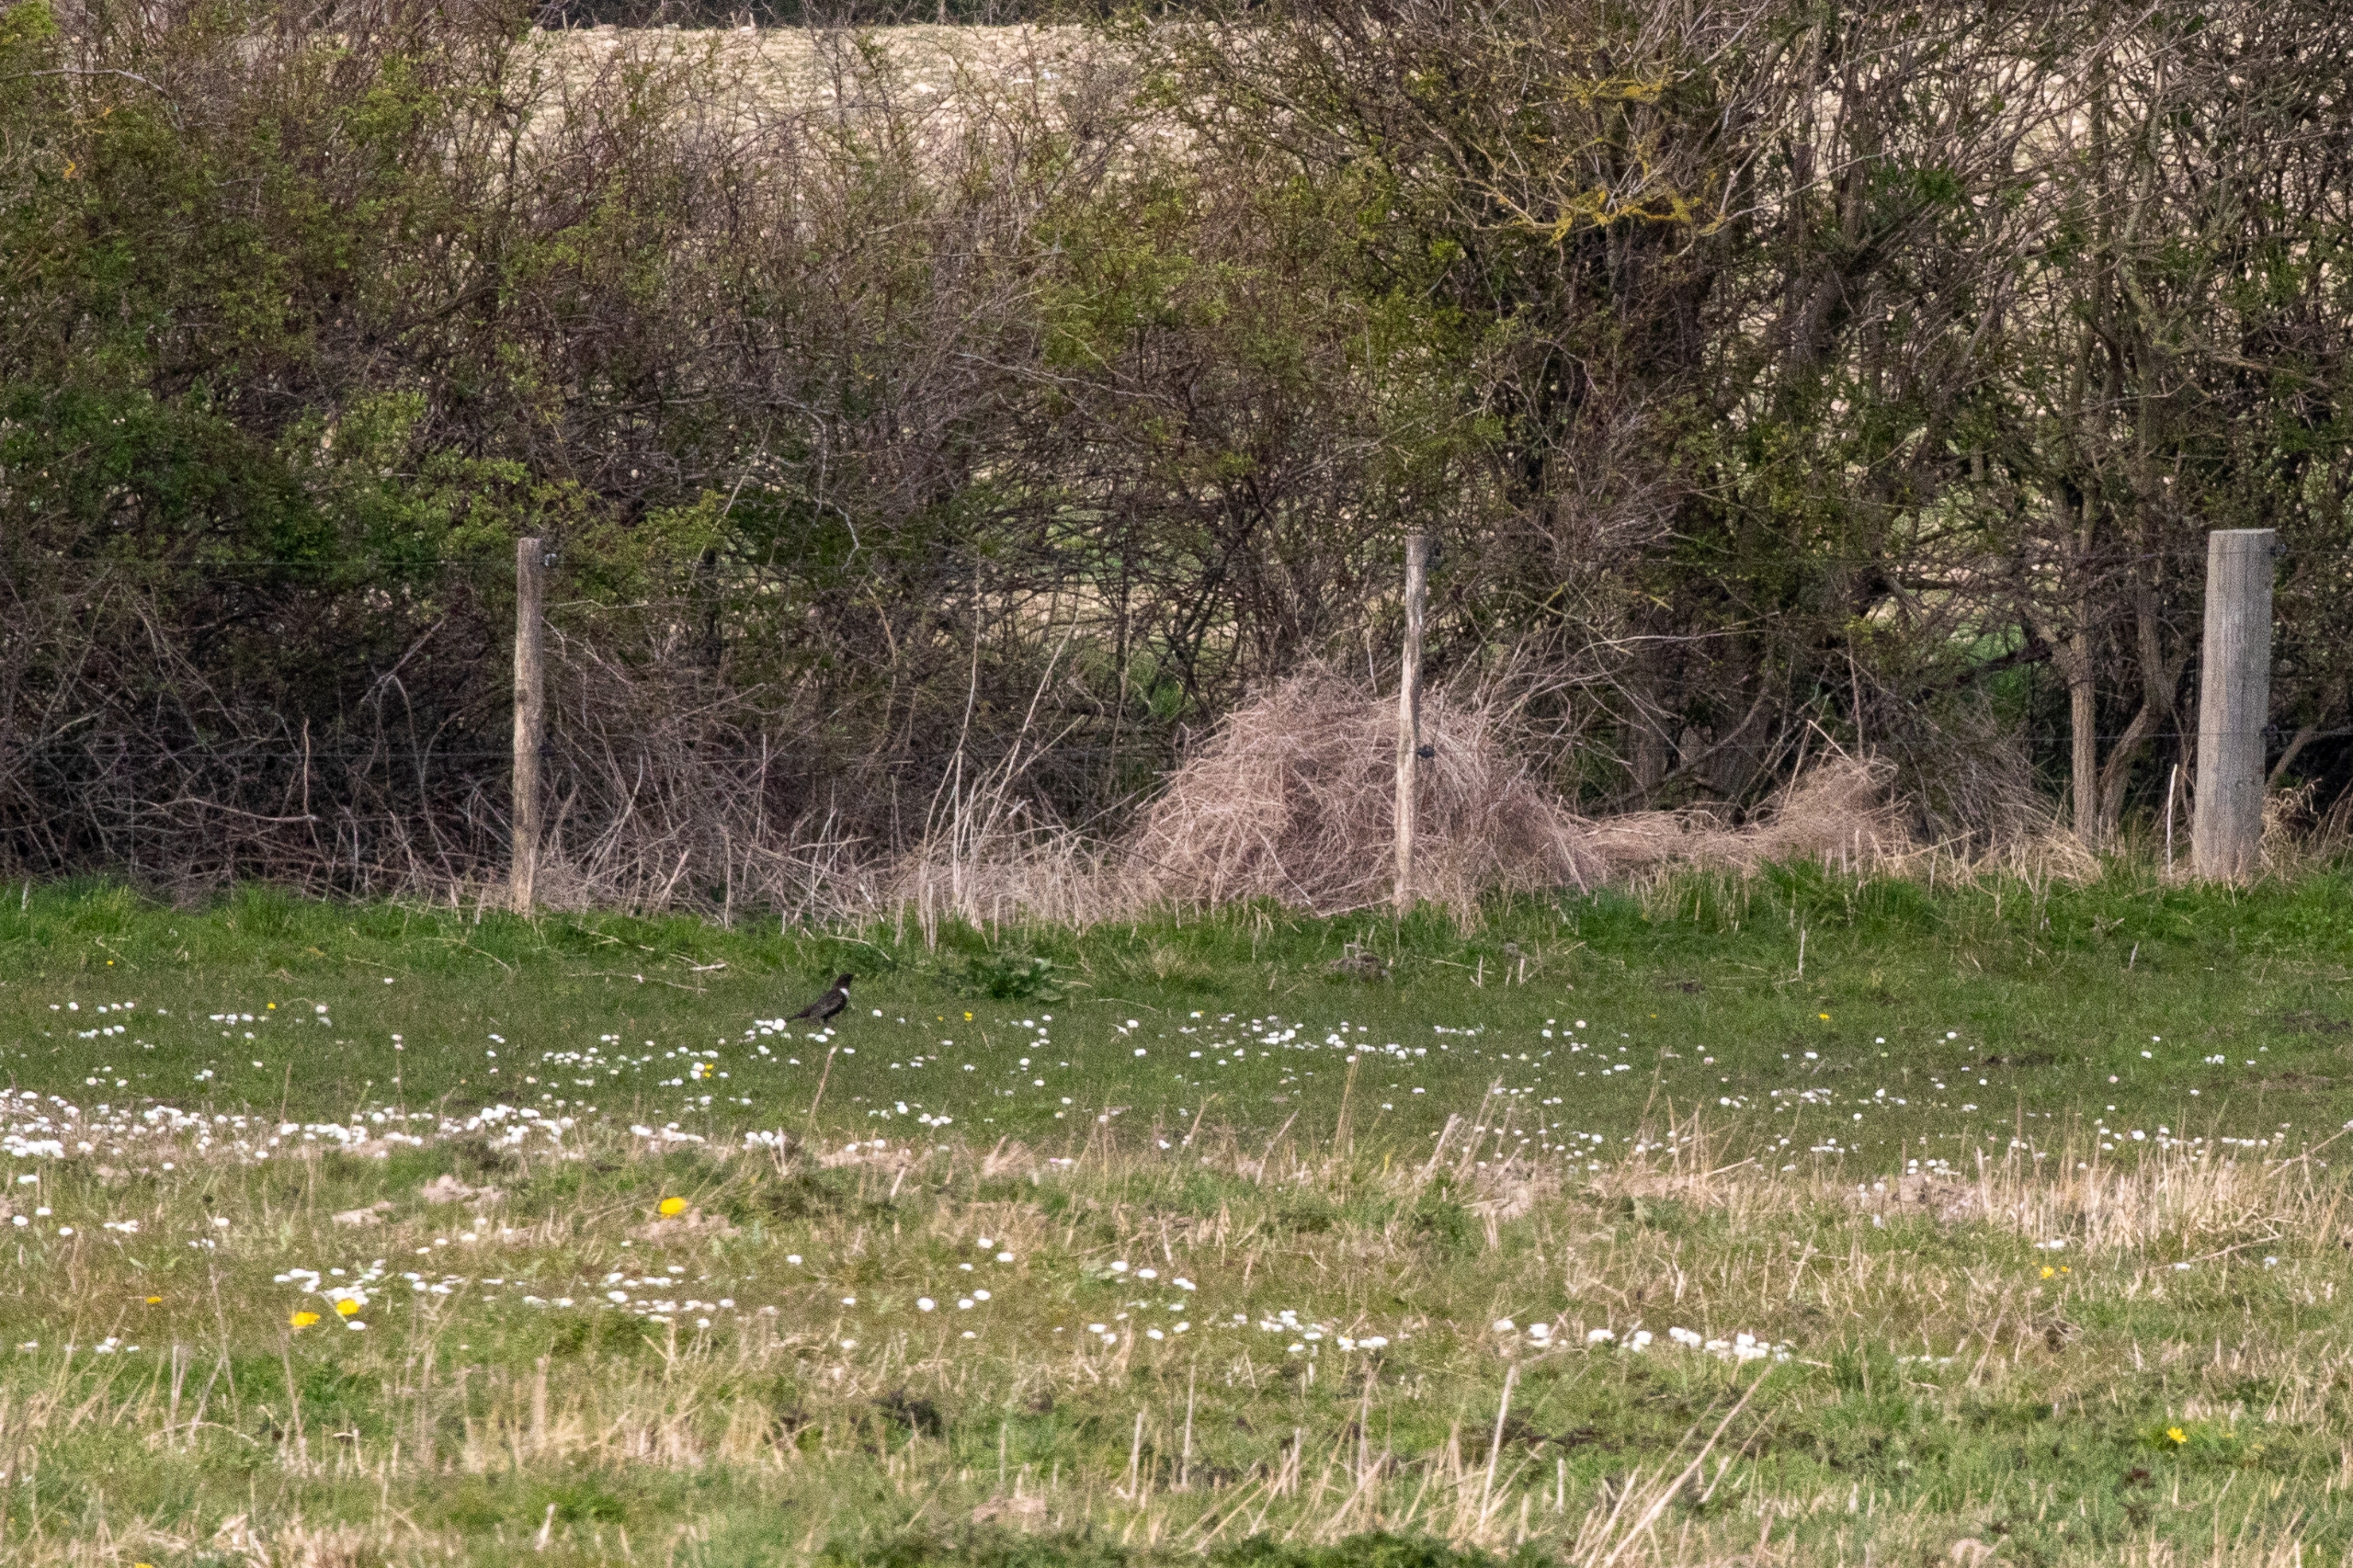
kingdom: Animalia
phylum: Chordata
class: Aves
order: Passeriformes
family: Turdidae
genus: Turdus
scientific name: Turdus torquatus
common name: Ringdrossel
